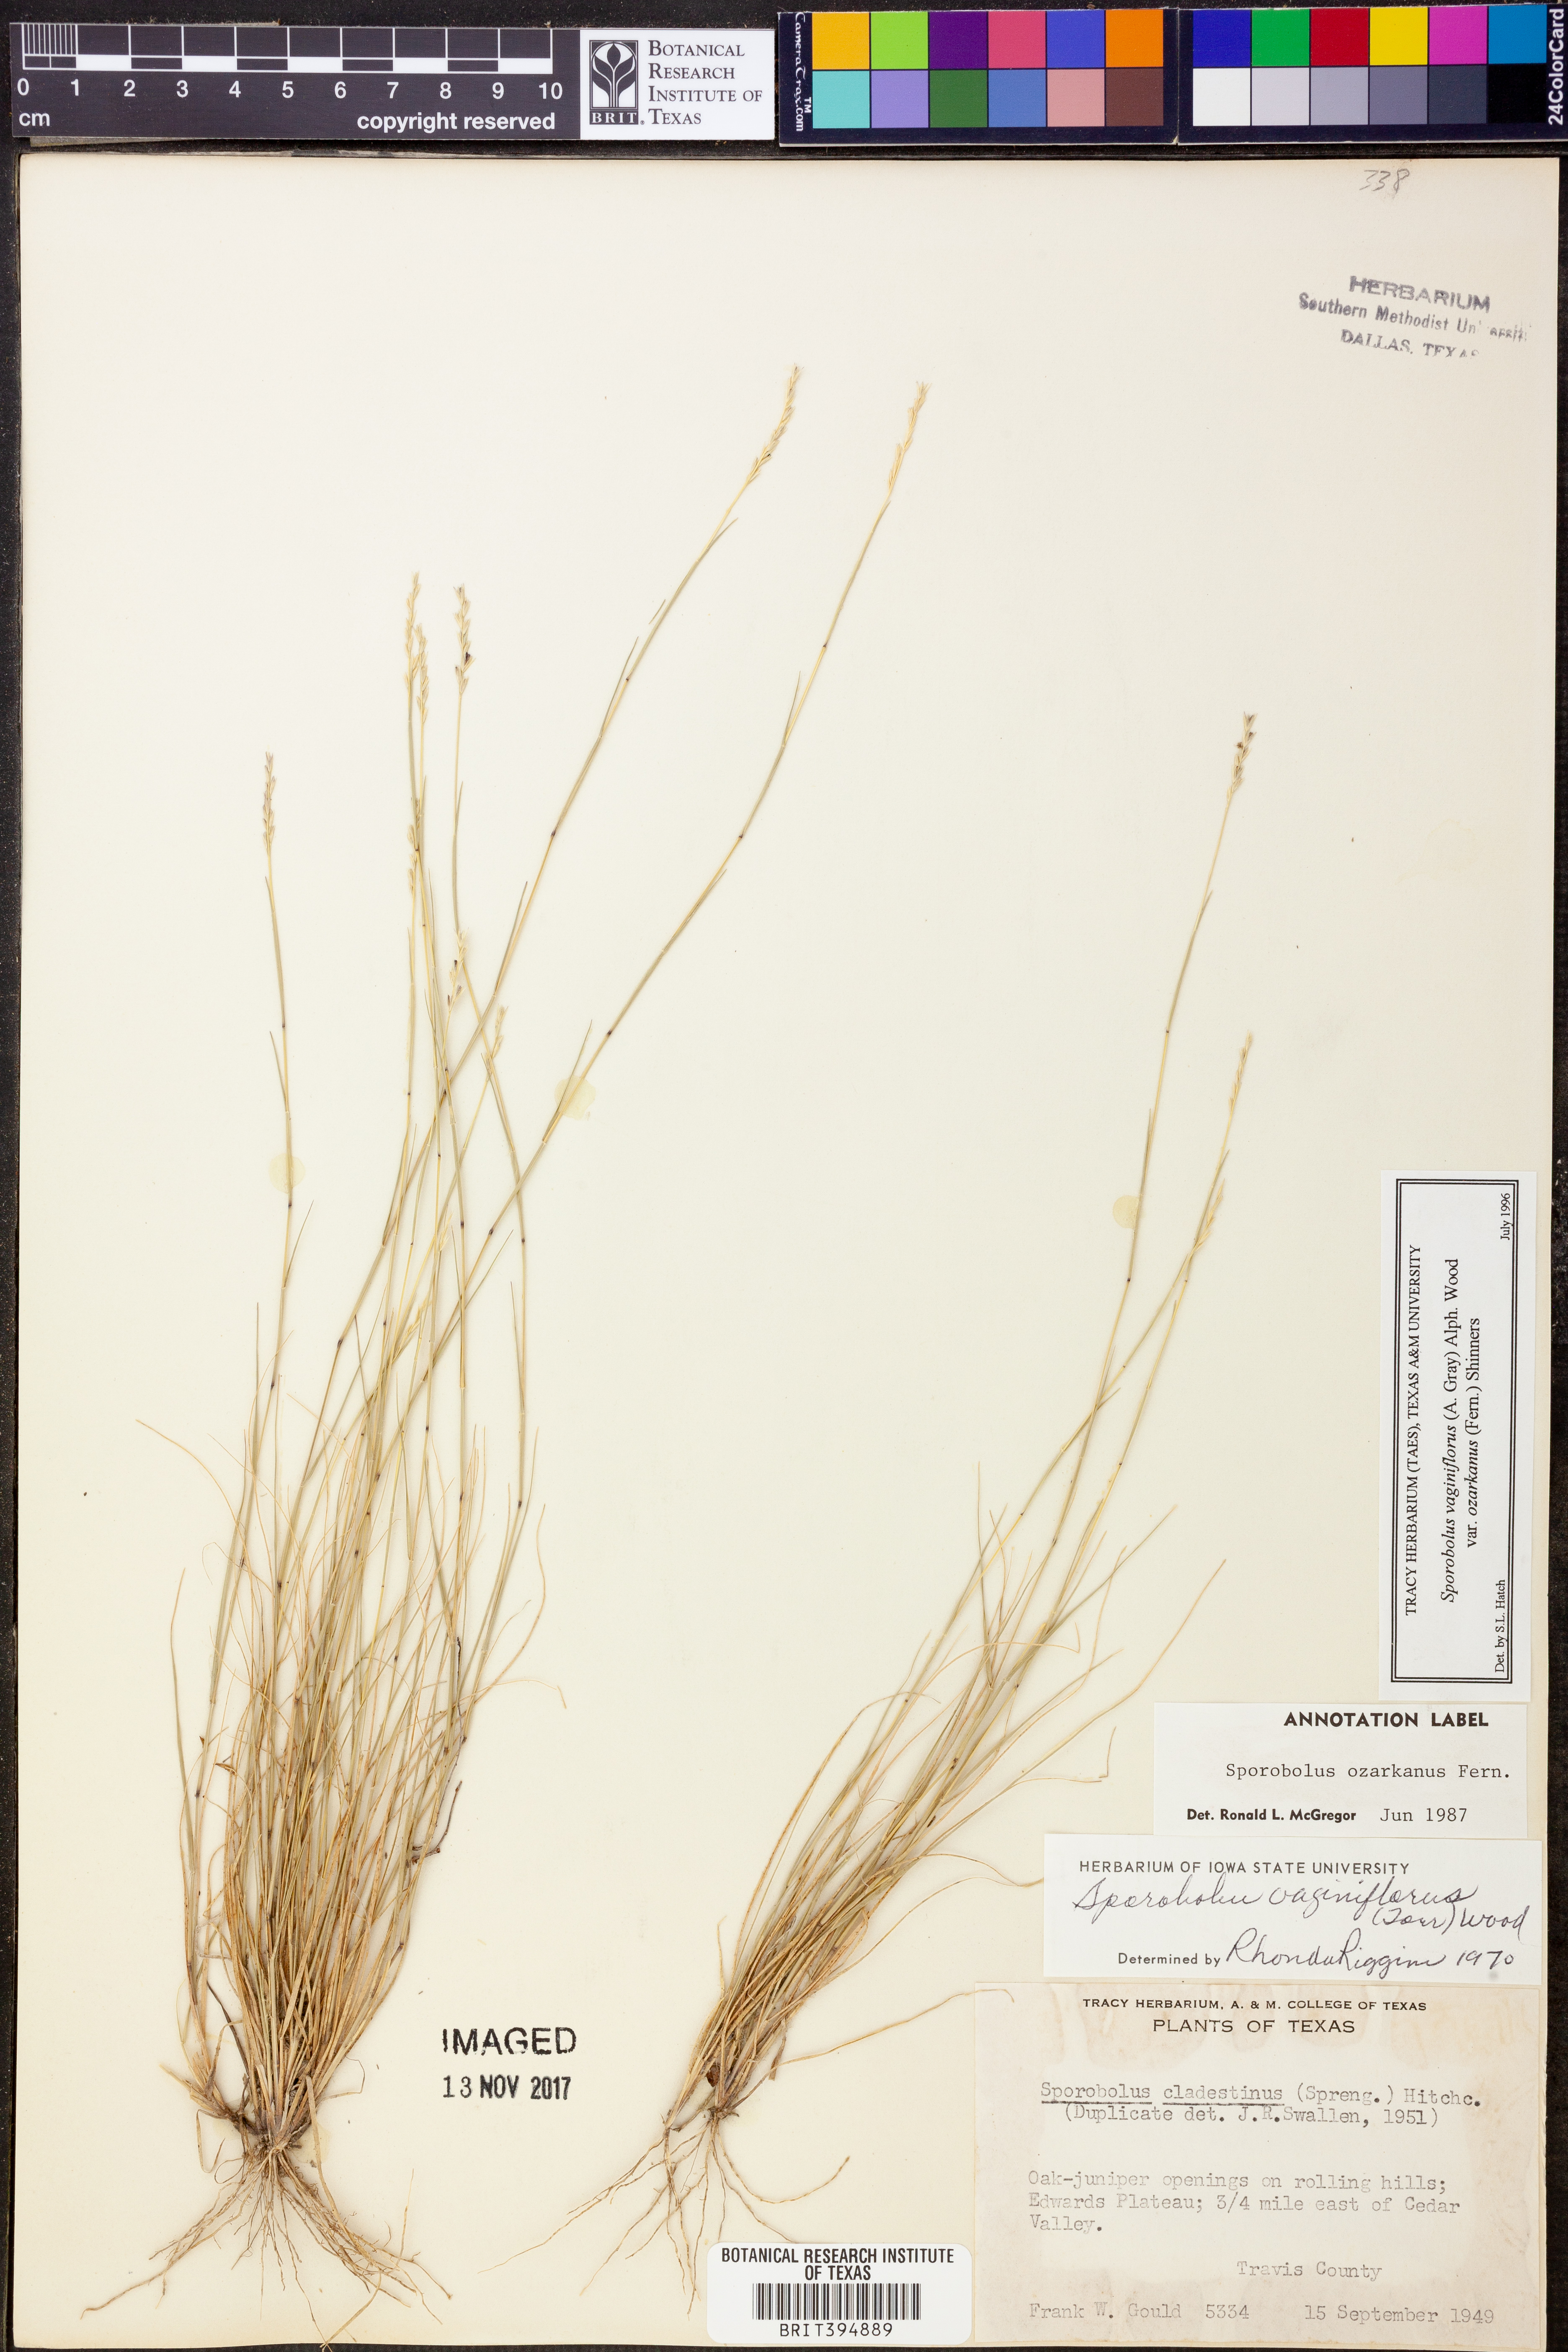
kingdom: Plantae
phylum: Tracheophyta
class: Liliopsida
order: Poales
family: Poaceae
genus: Sporobolus
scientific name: Sporobolus neglectus
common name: Annual dropseed
